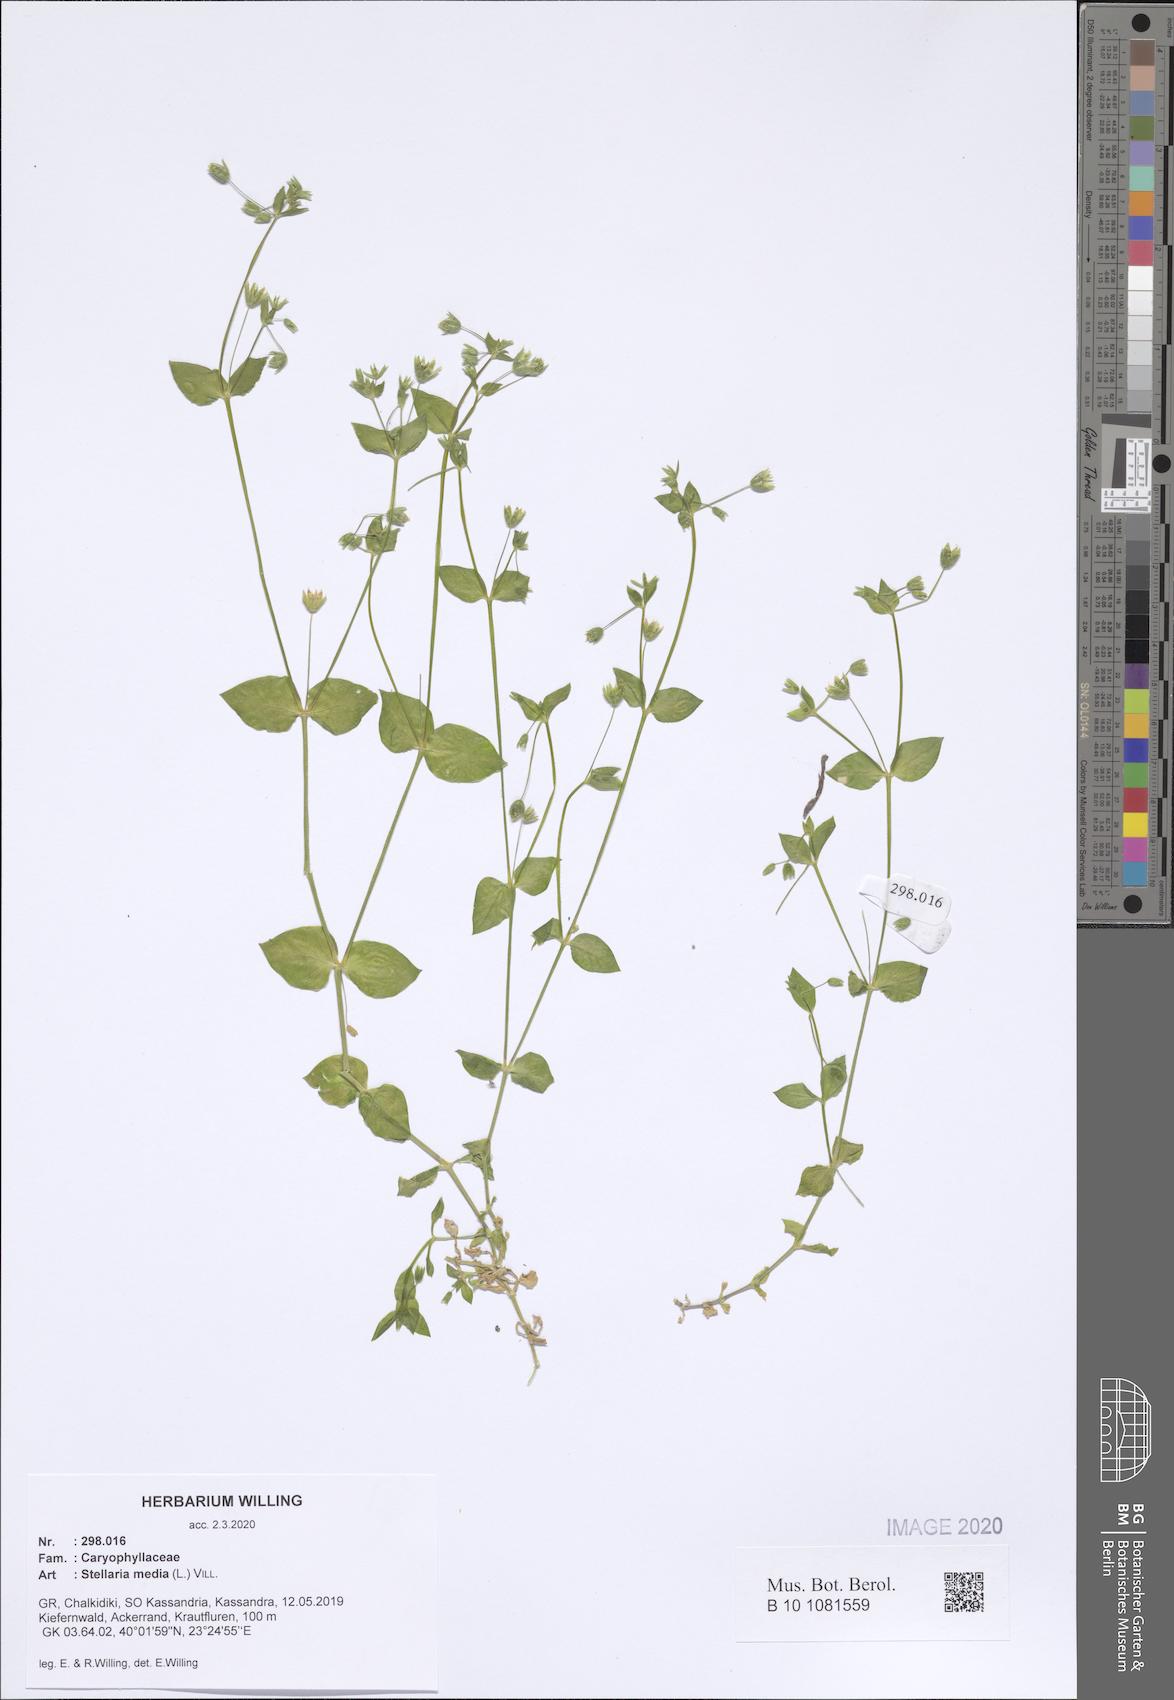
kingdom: Plantae
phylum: Tracheophyta
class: Magnoliopsida
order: Caryophyllales
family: Caryophyllaceae
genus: Stellaria
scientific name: Stellaria media
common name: Common chickweed
